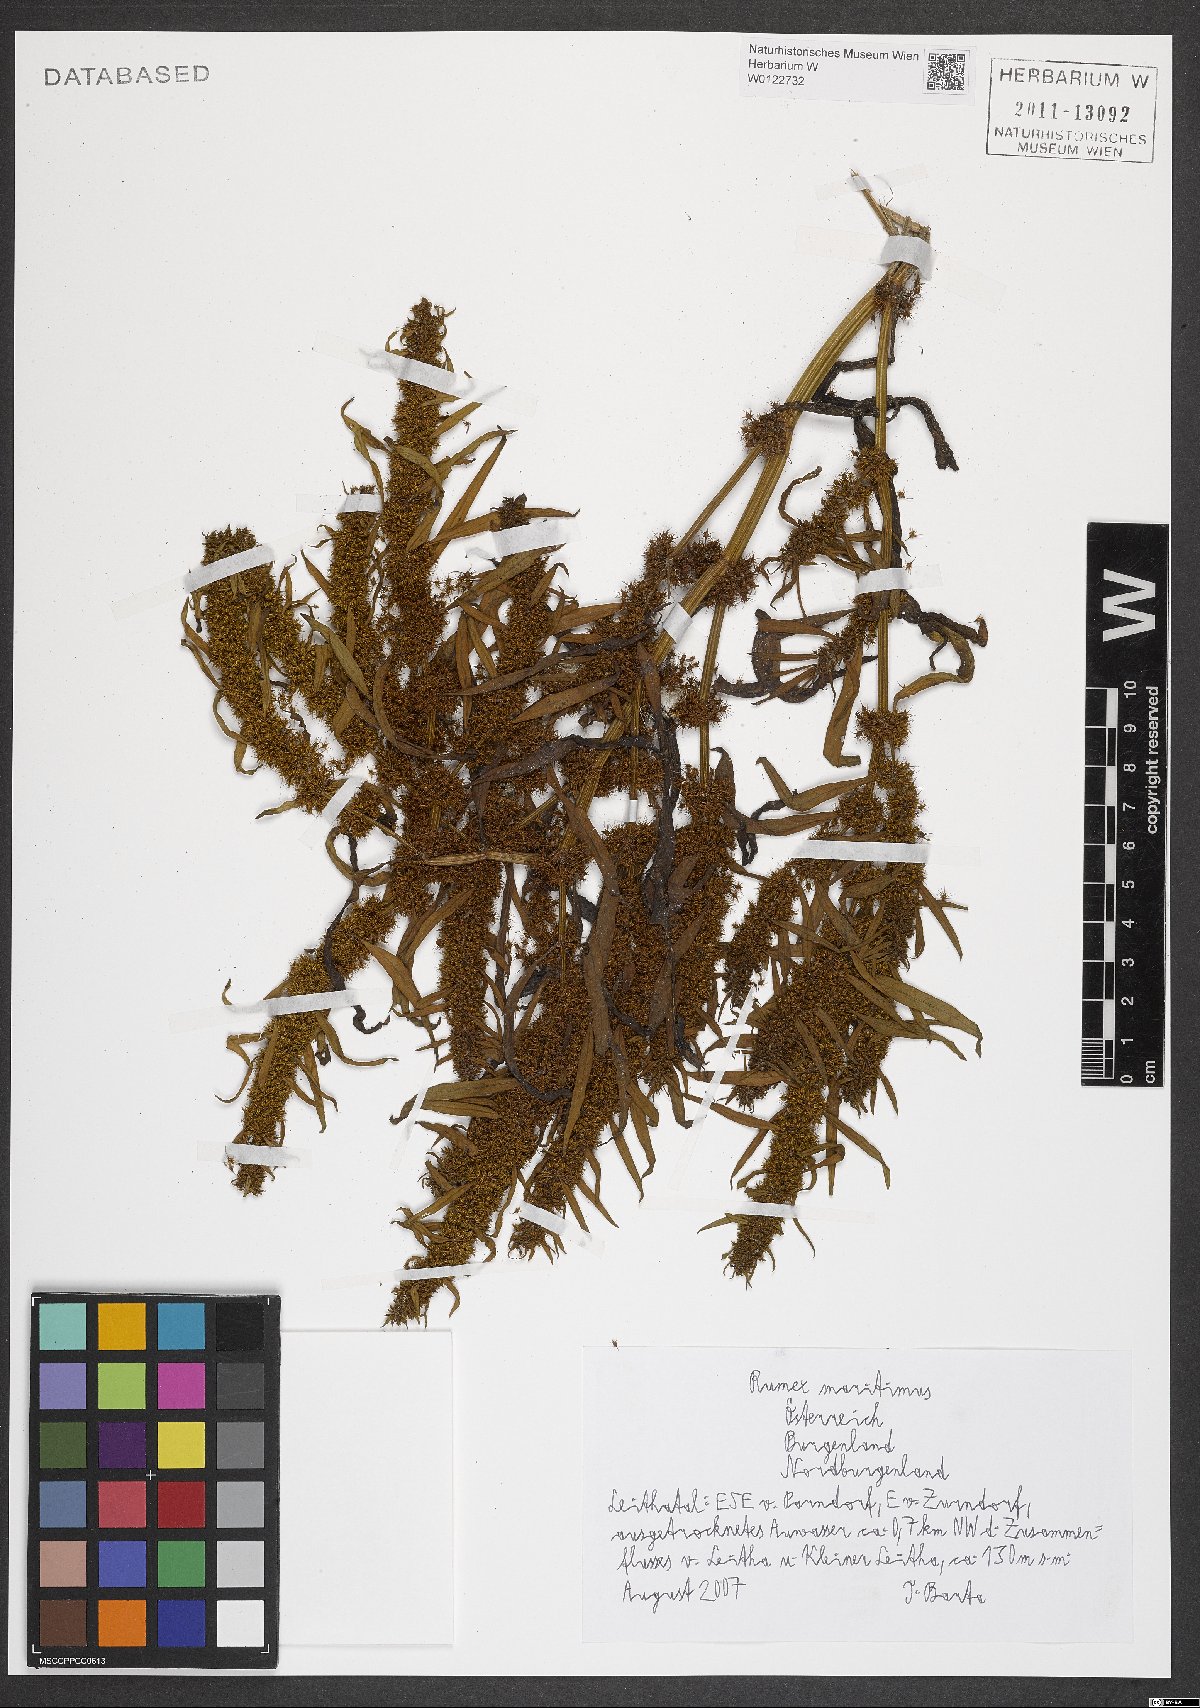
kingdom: Plantae
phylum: Tracheophyta
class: Magnoliopsida
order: Caryophyllales
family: Polygonaceae
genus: Rumex
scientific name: Rumex maritimus
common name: Golden dock
